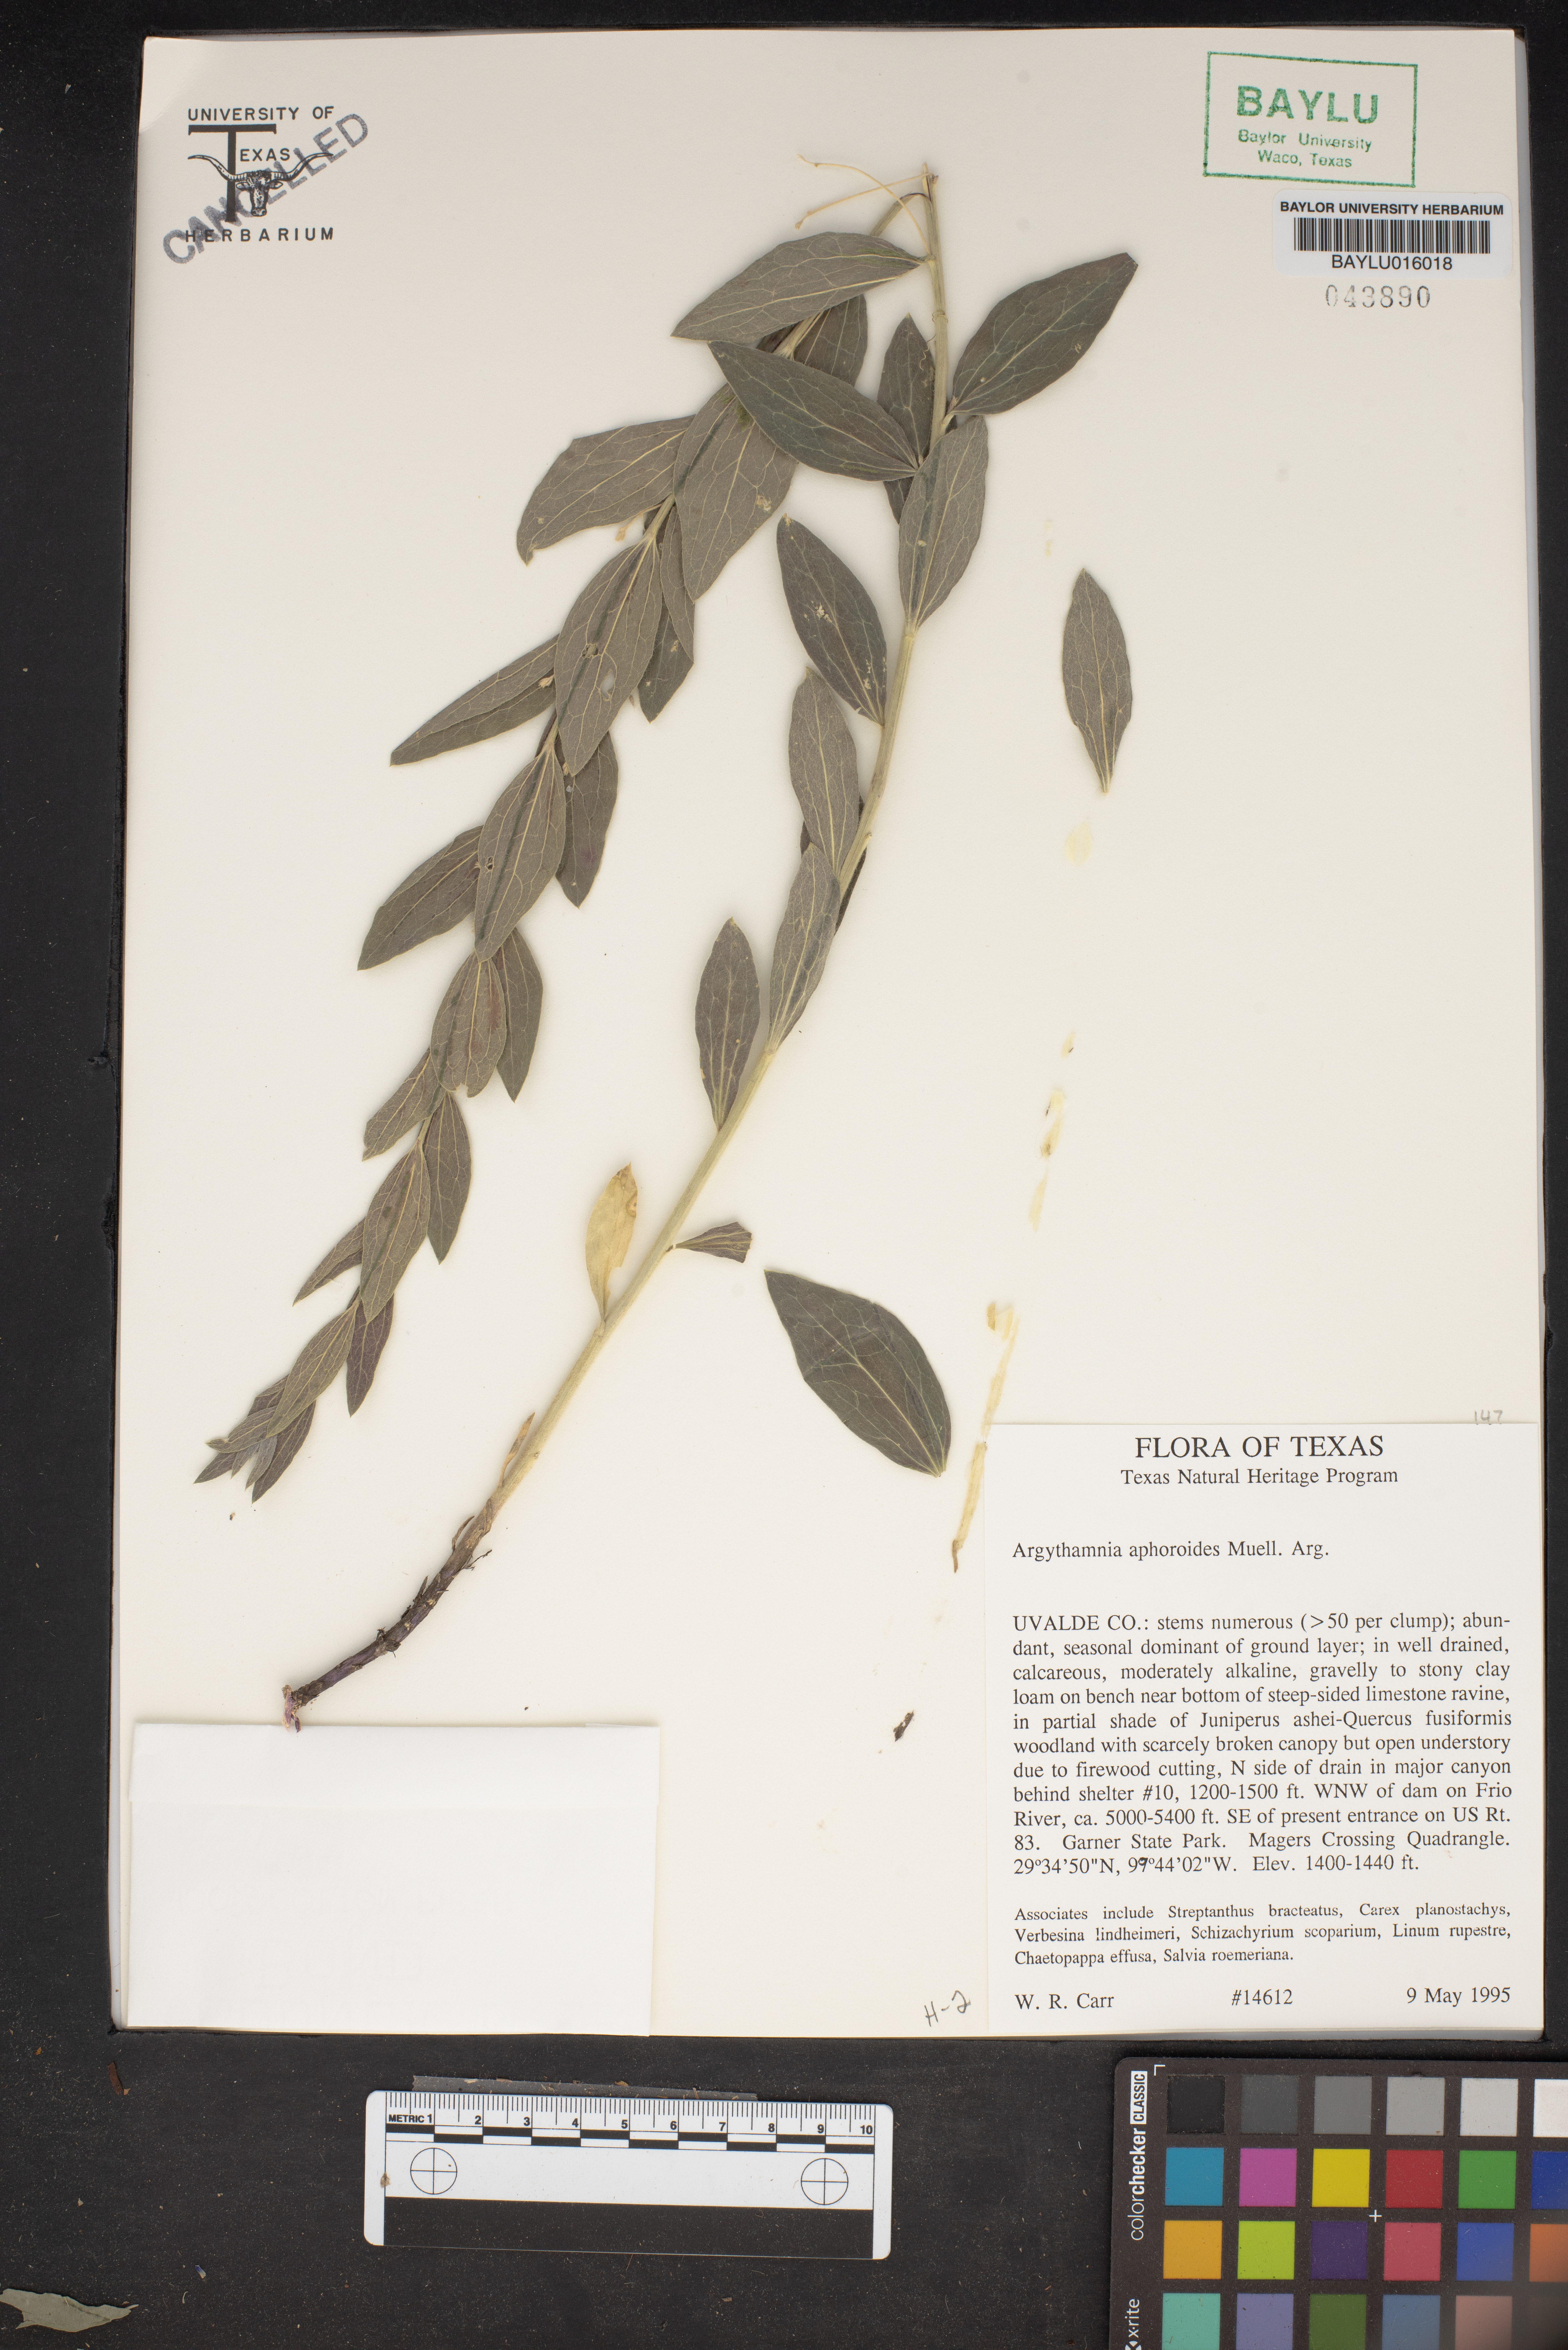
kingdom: Plantae
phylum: Tracheophyta
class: Magnoliopsida
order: Malpighiales
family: Euphorbiaceae
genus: Ditaxis
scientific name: Ditaxis aphoroides
